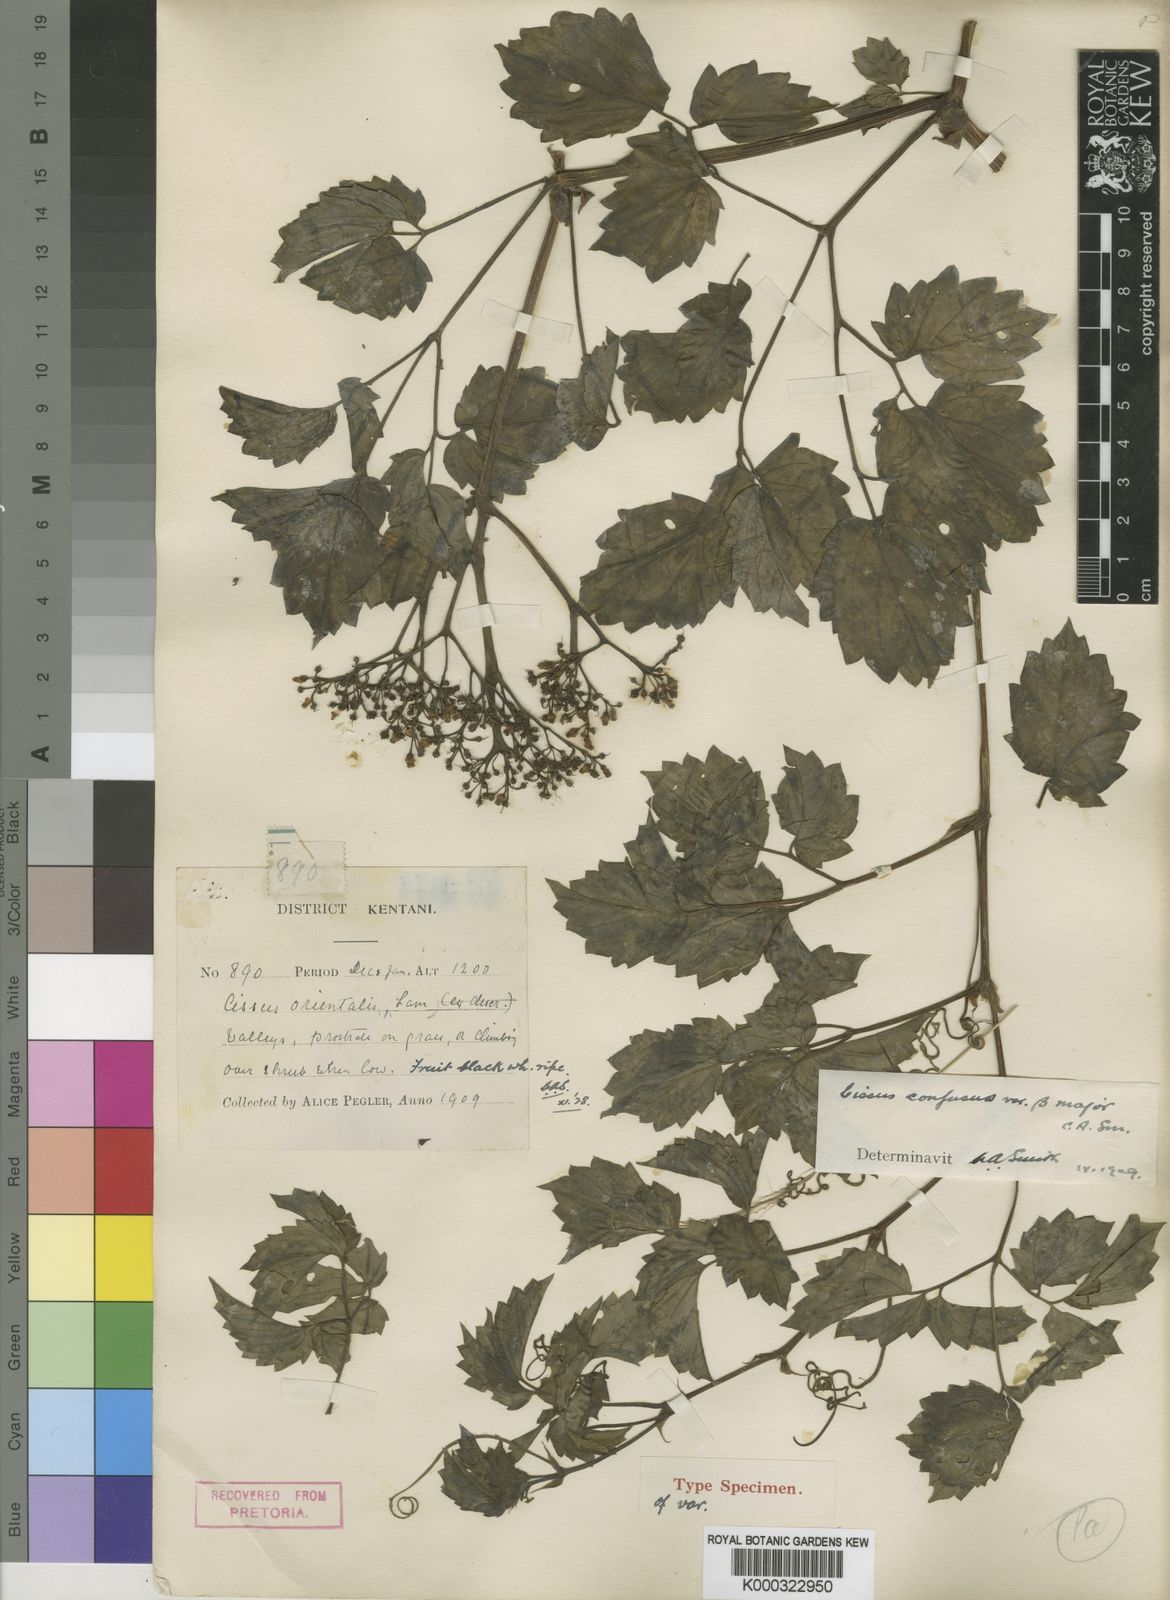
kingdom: Plantae
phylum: Tracheophyta
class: Magnoliopsida
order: Vitales
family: Vitaceae
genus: Cyphostemma
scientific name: Cyphostemma natalitium
